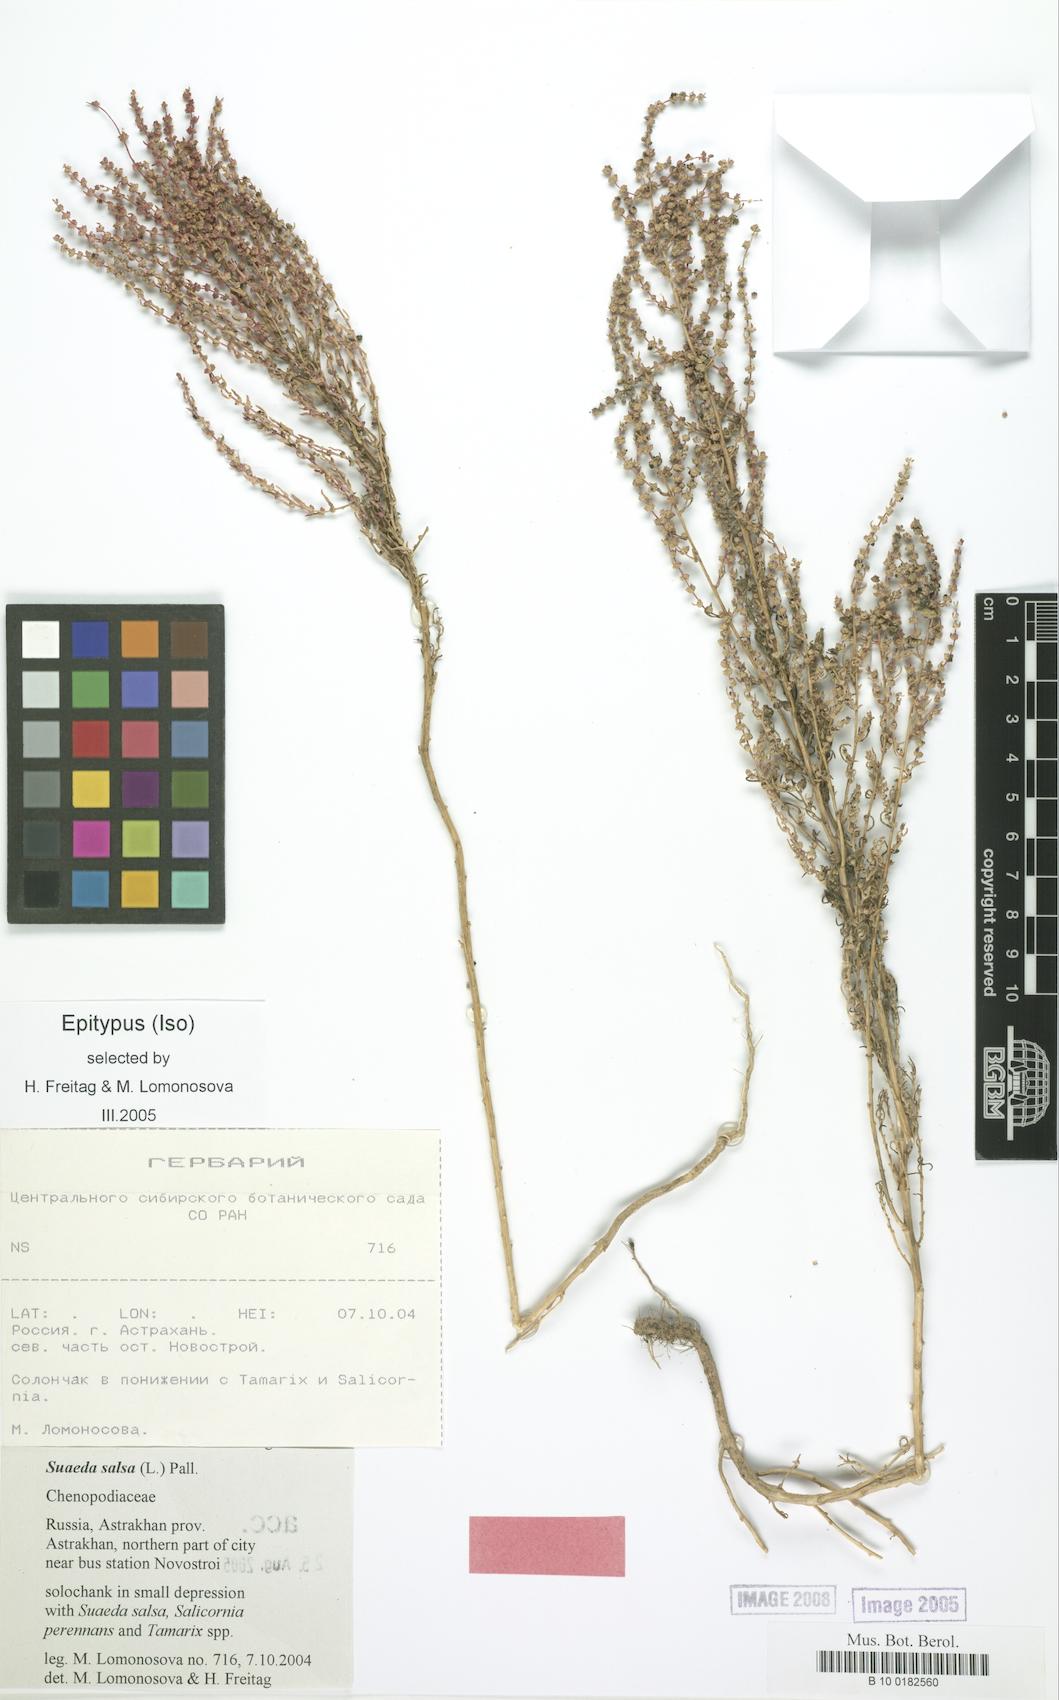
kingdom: Plantae
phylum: Tracheophyta
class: Magnoliopsida
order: Caryophyllales
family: Amaranthaceae
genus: Suaeda
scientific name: Suaeda salsa
